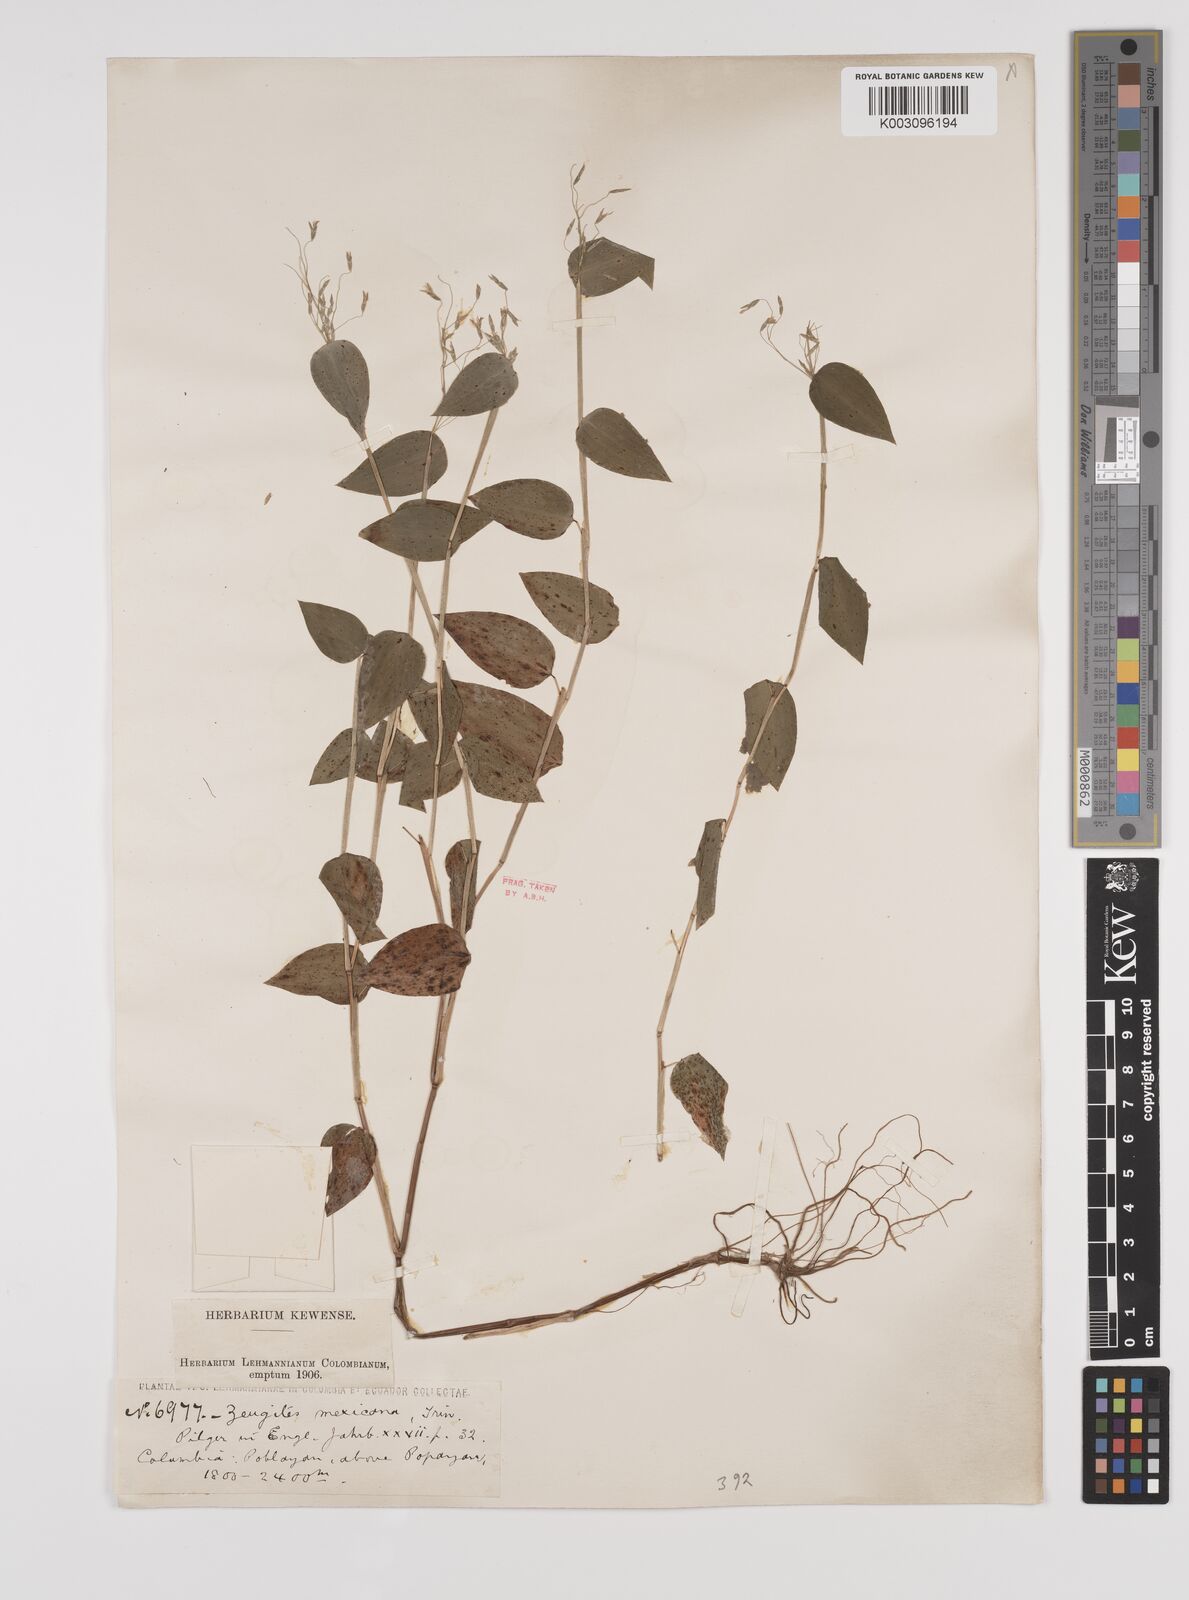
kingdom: Plantae
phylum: Tracheophyta
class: Liliopsida
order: Poales
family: Poaceae
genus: Zeugites
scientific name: Zeugites americanus
